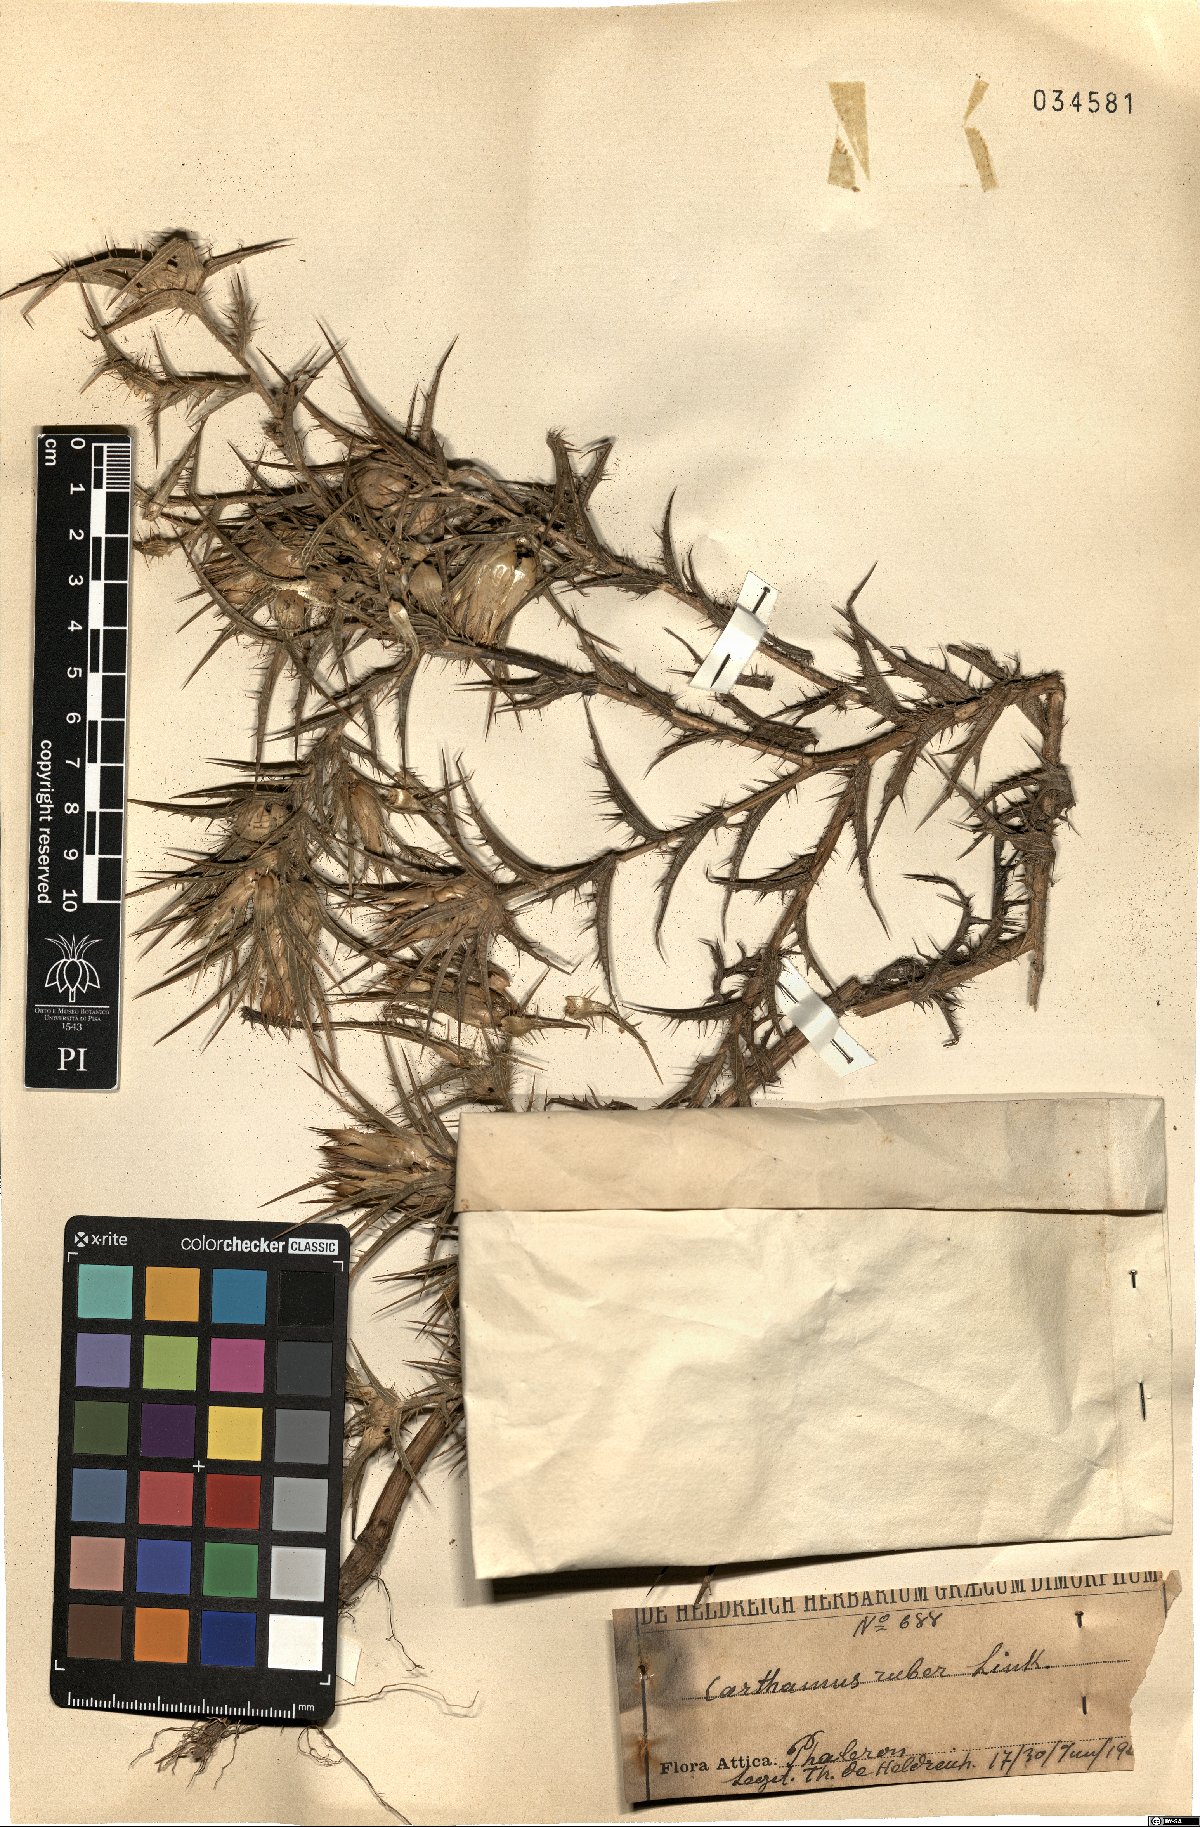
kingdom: Plantae
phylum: Tracheophyta
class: Magnoliopsida
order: Asterales
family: Asteraceae
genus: Carthamus
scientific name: Carthamus dentatus
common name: Toothed thistle
